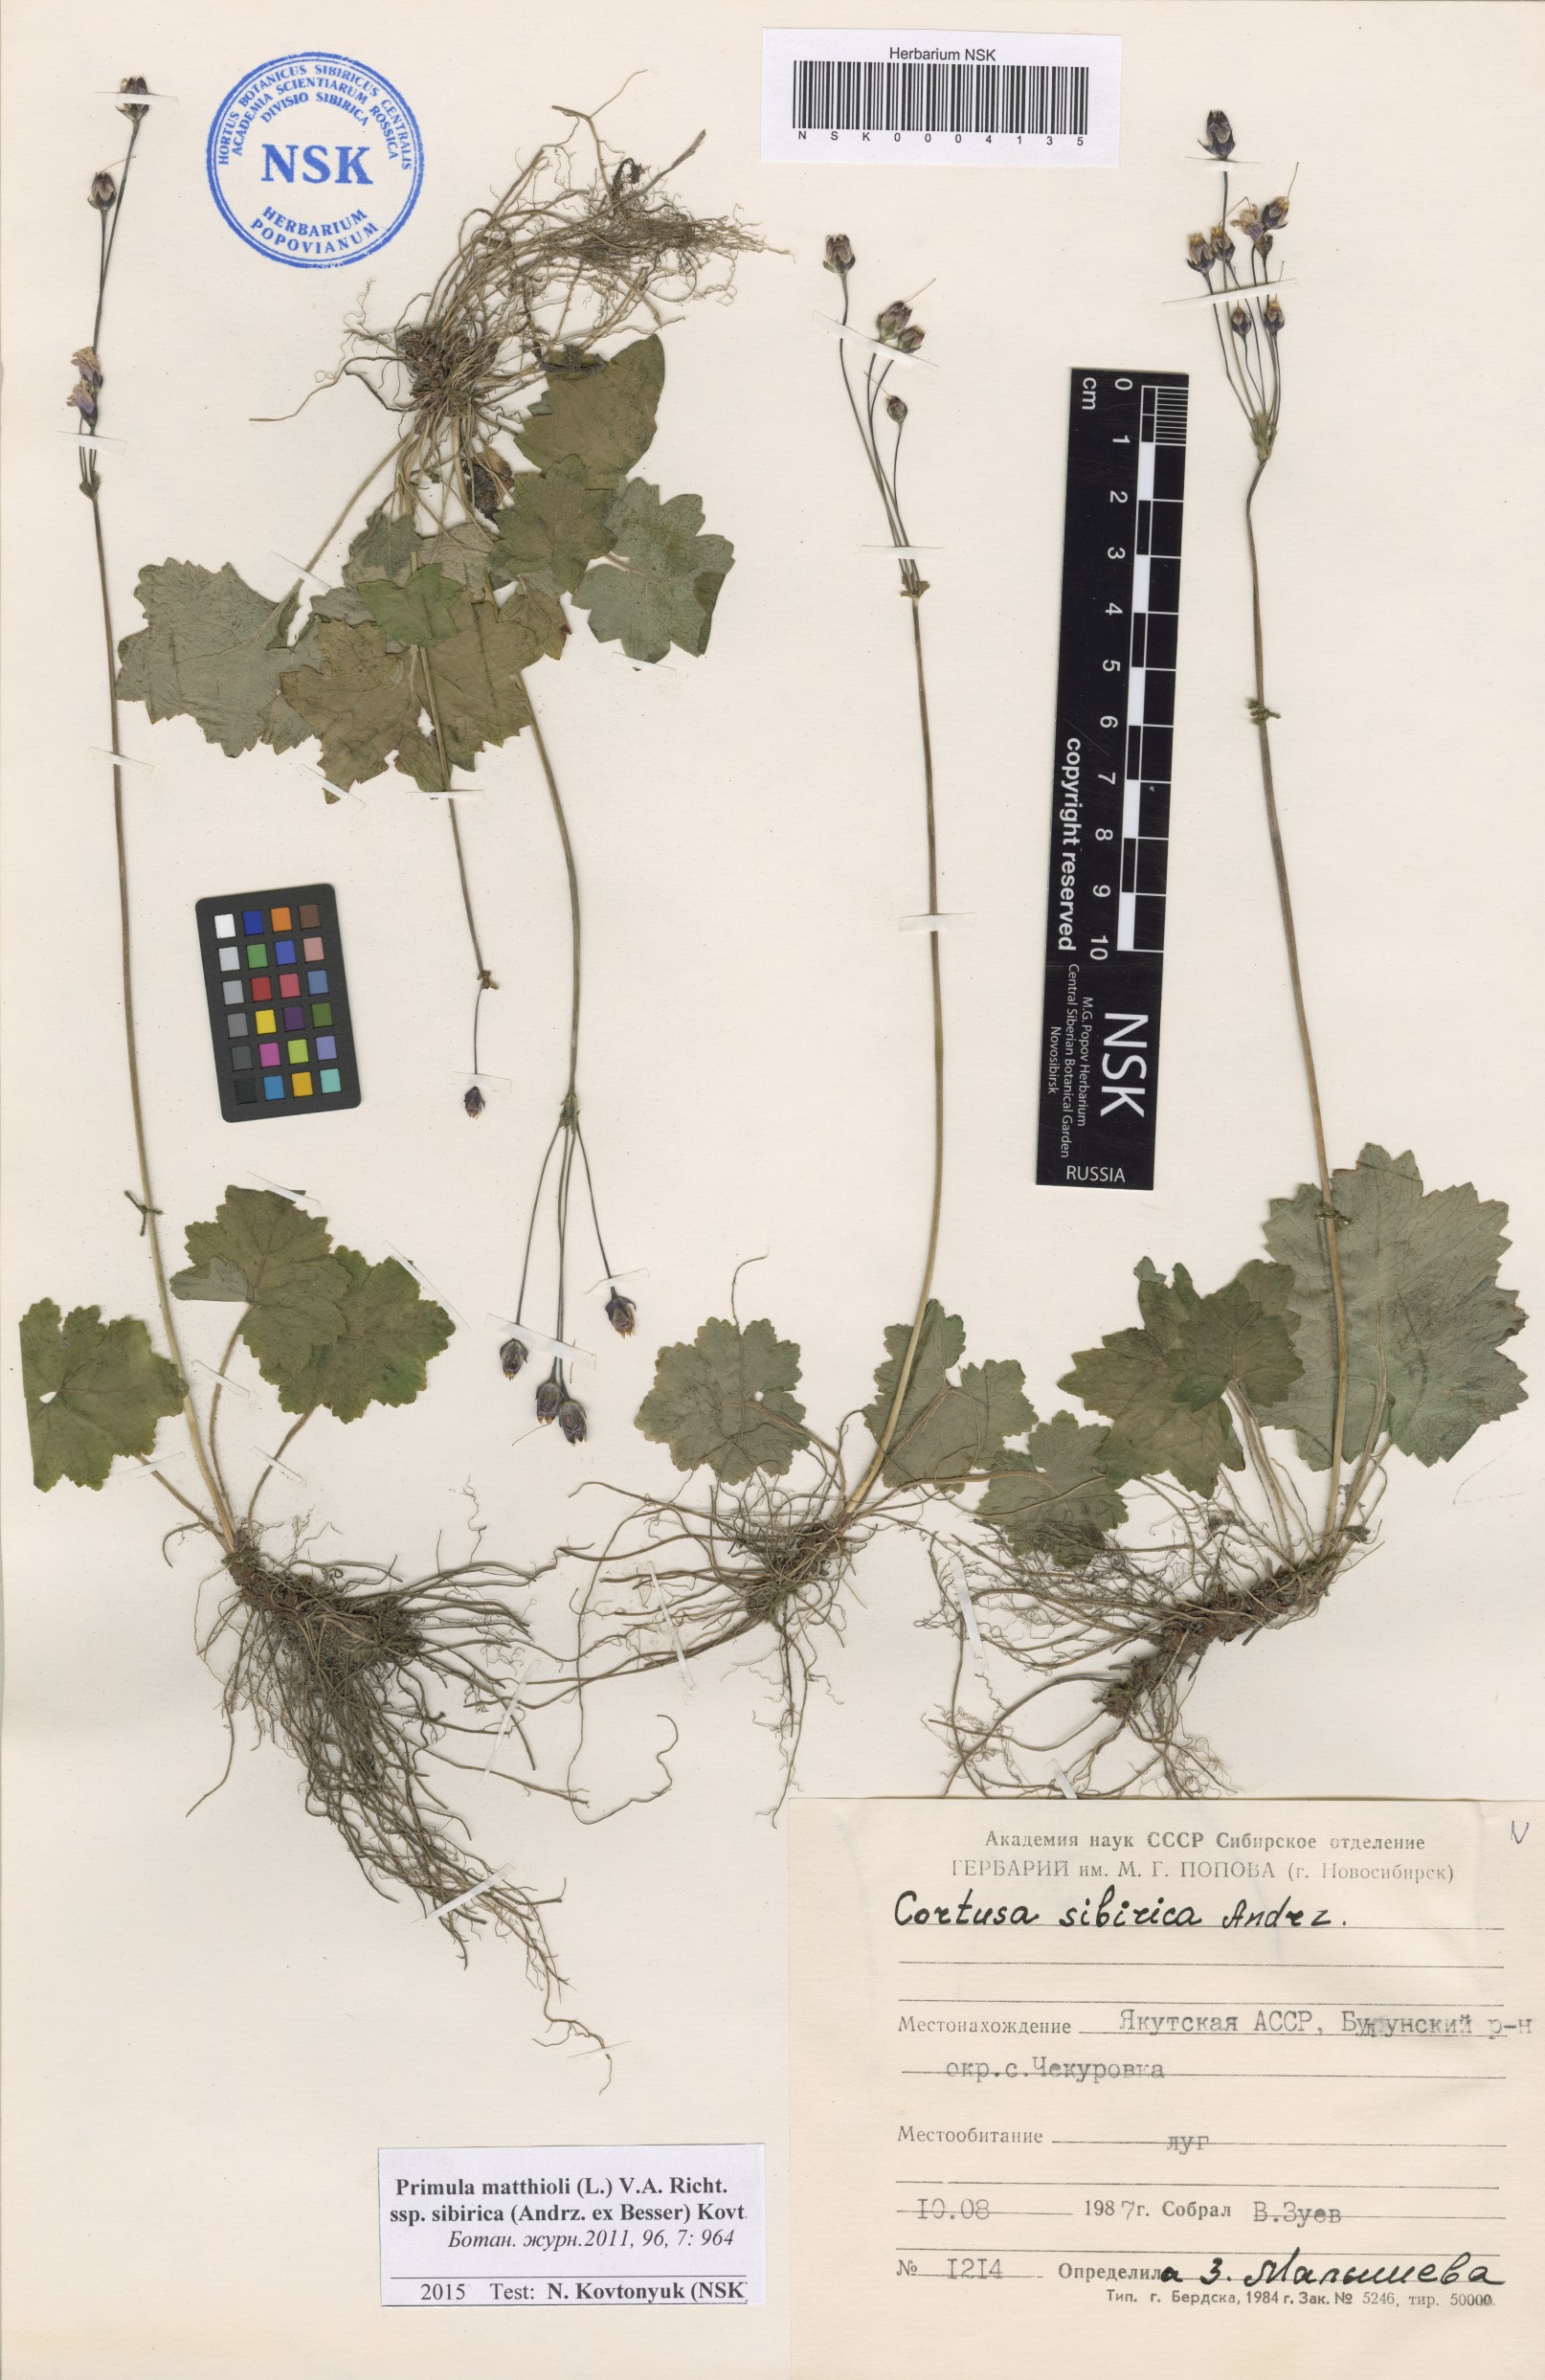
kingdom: Plantae
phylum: Tracheophyta
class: Magnoliopsida
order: Ericales
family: Primulaceae
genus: Primula
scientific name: Primula matthioli
